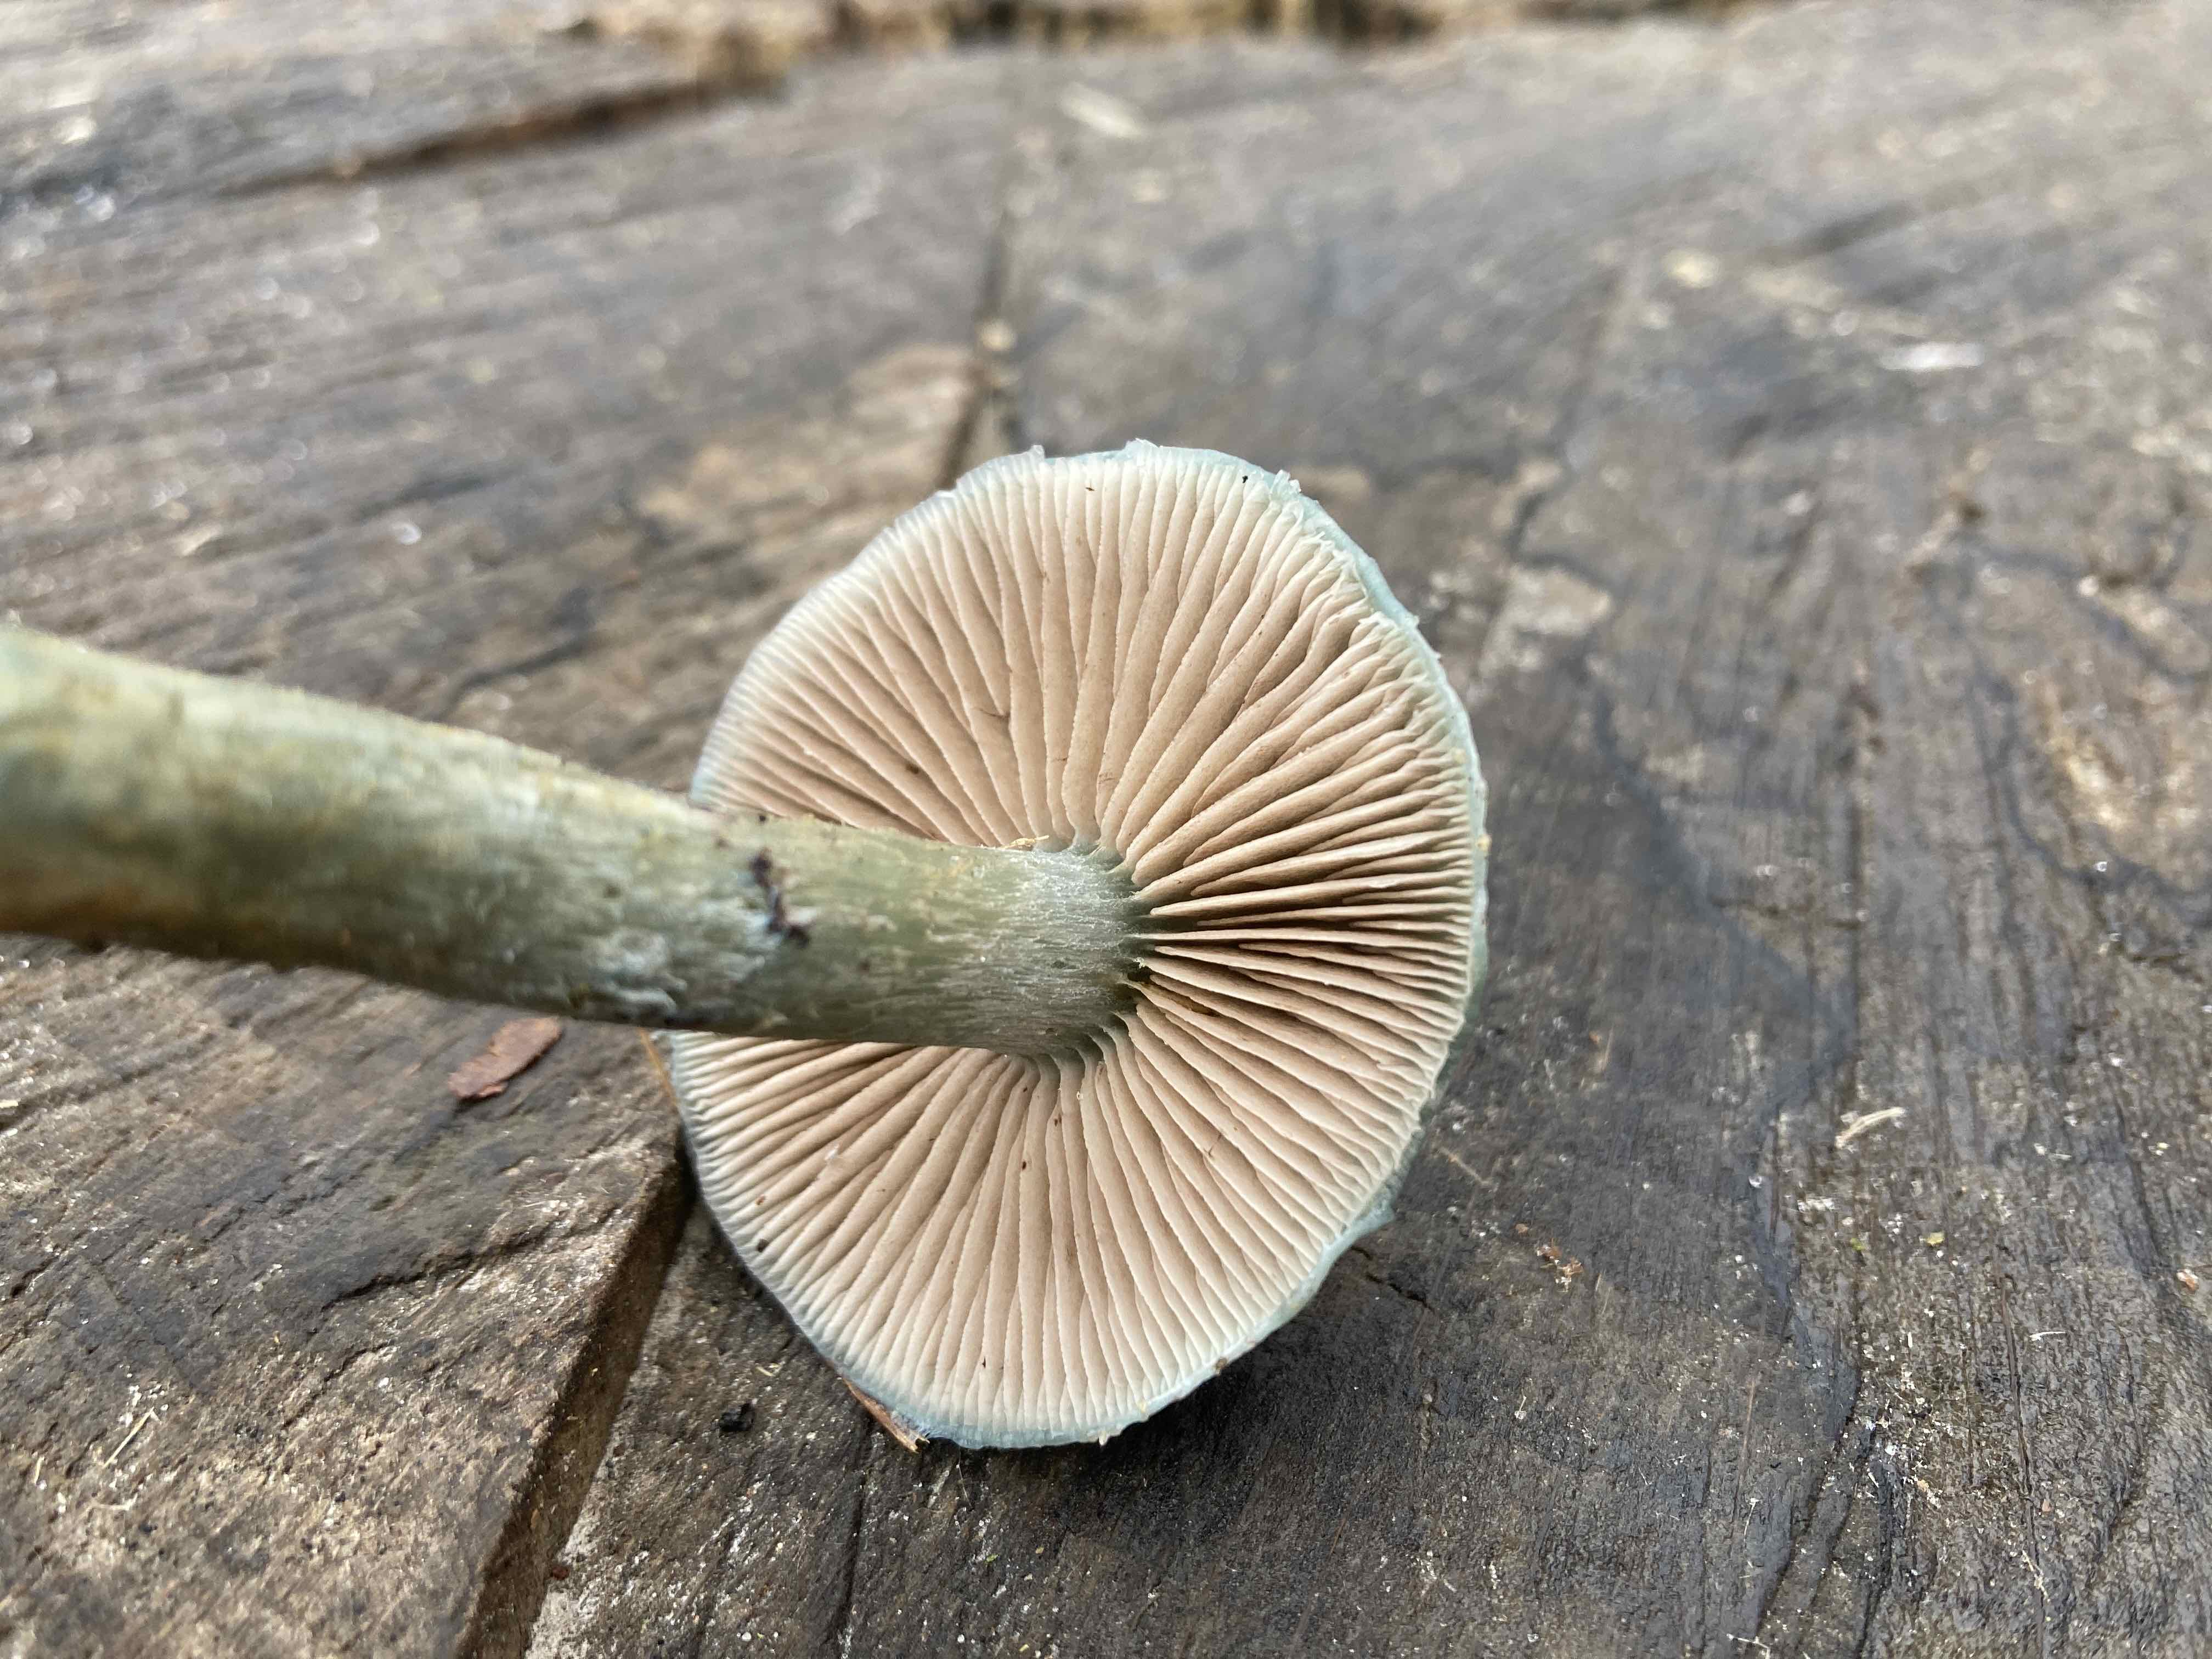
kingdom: Fungi
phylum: Basidiomycota
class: Agaricomycetes
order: Agaricales
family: Strophariaceae
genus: Stropharia
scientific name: Stropharia cyanea
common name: blågrøn bredblad
